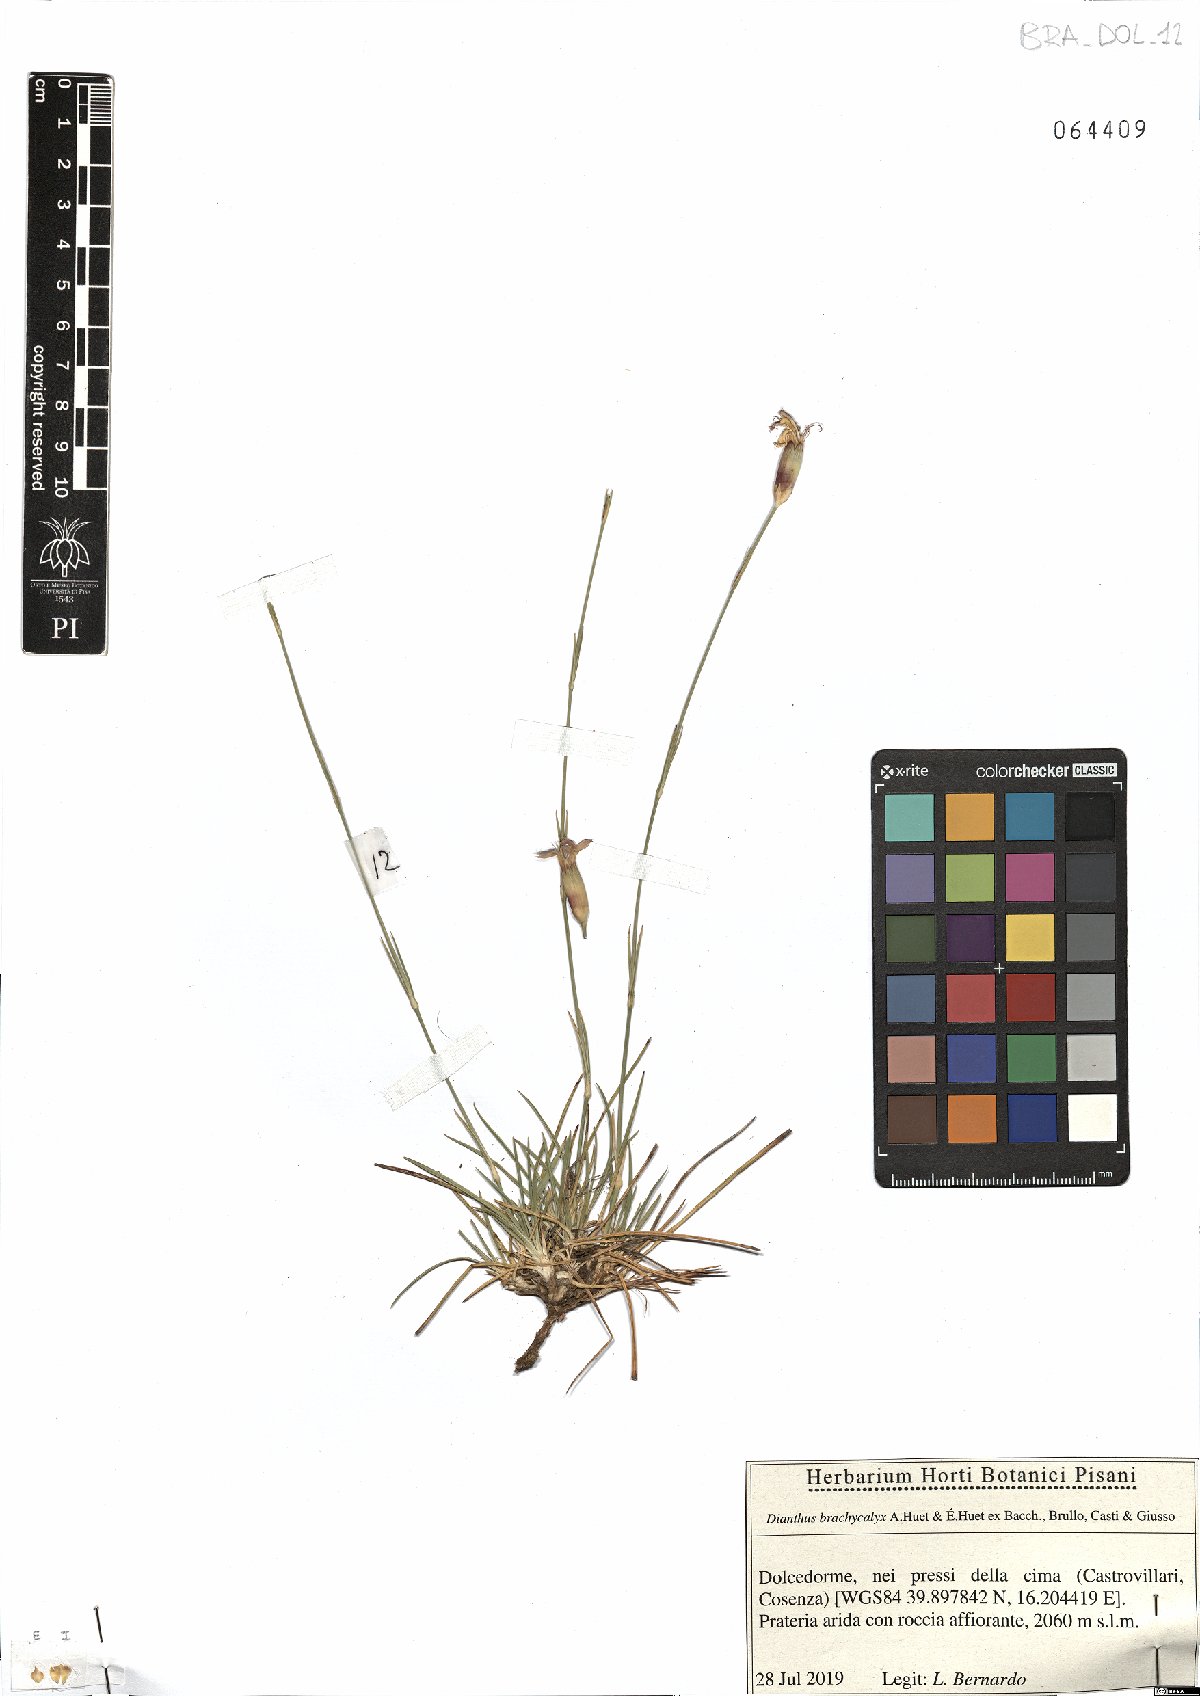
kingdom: Plantae
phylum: Tracheophyta
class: Magnoliopsida
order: Caryophyllales
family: Caryophyllaceae
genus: Dianthus
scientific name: Dianthus brachycalyx
